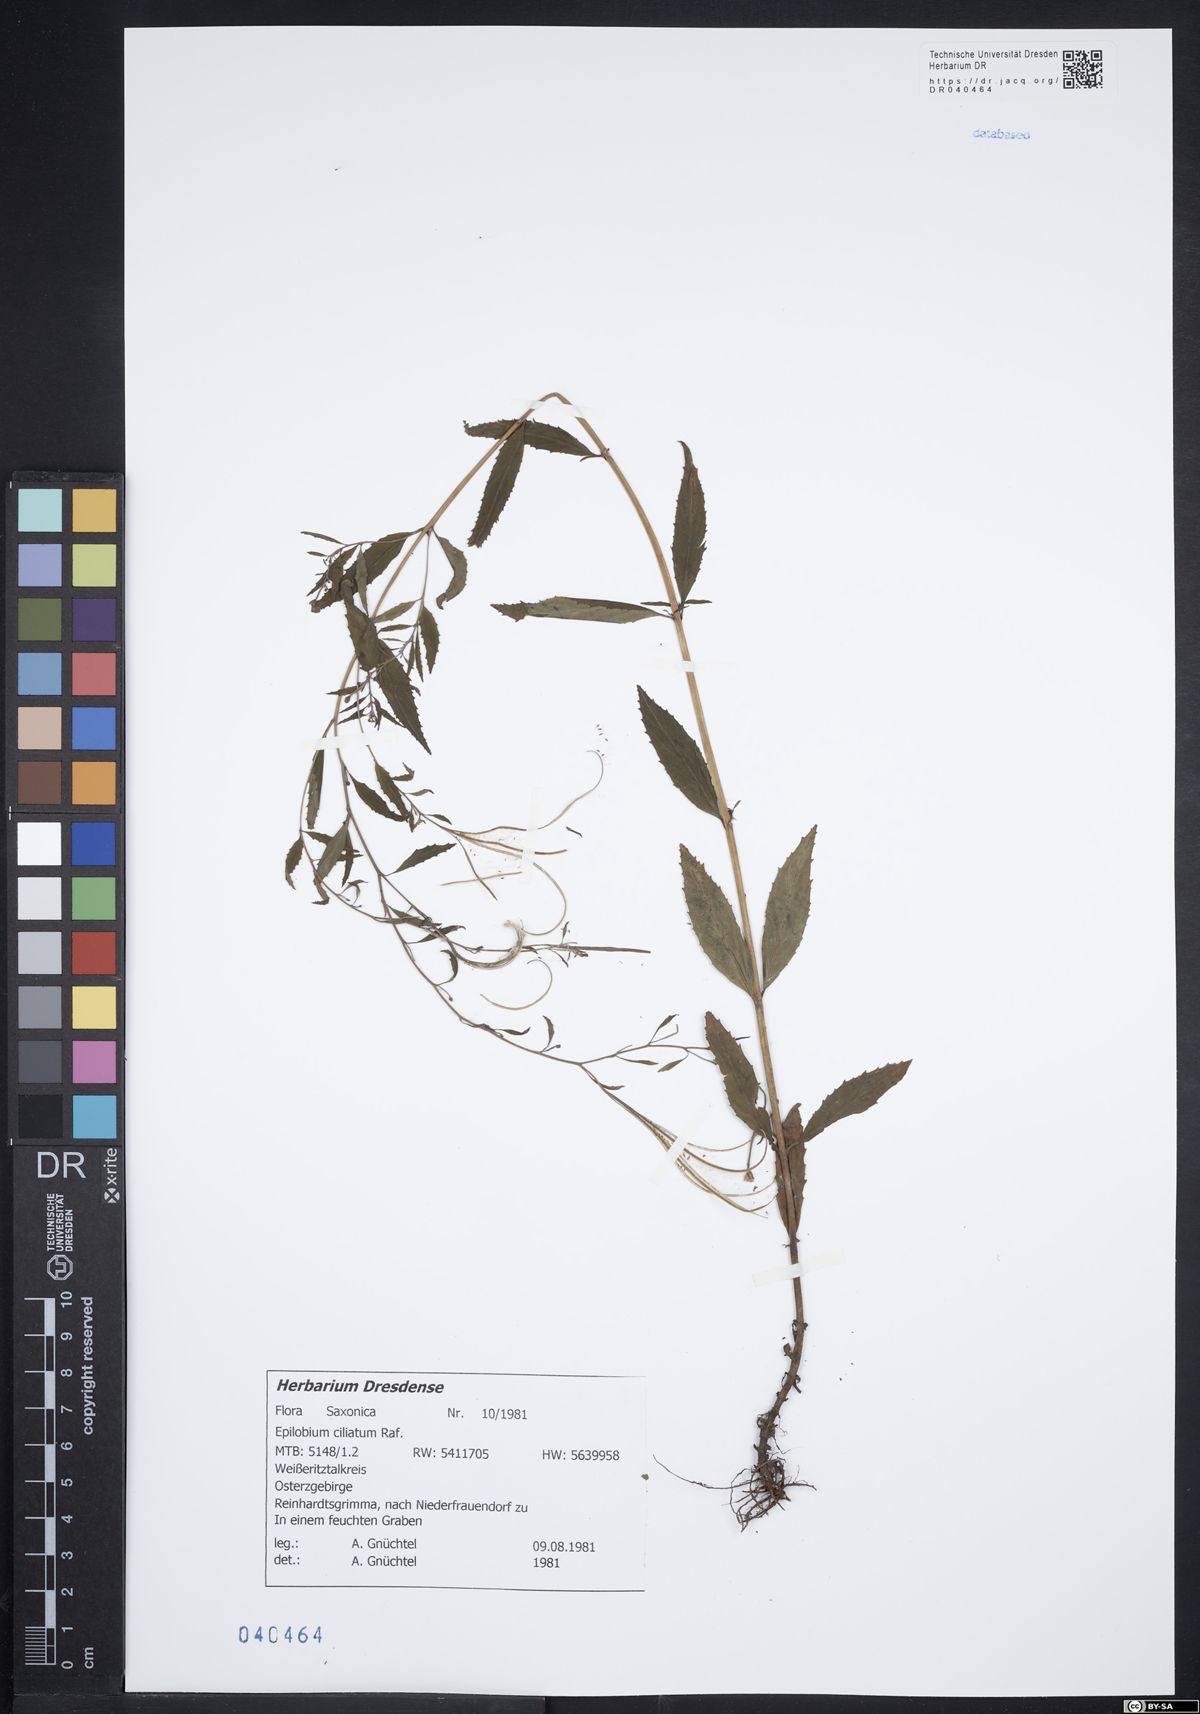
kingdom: Plantae
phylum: Tracheophyta
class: Magnoliopsida
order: Myrtales
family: Onagraceae
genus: Epilobium
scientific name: Epilobium ciliatum
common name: American willowherb
